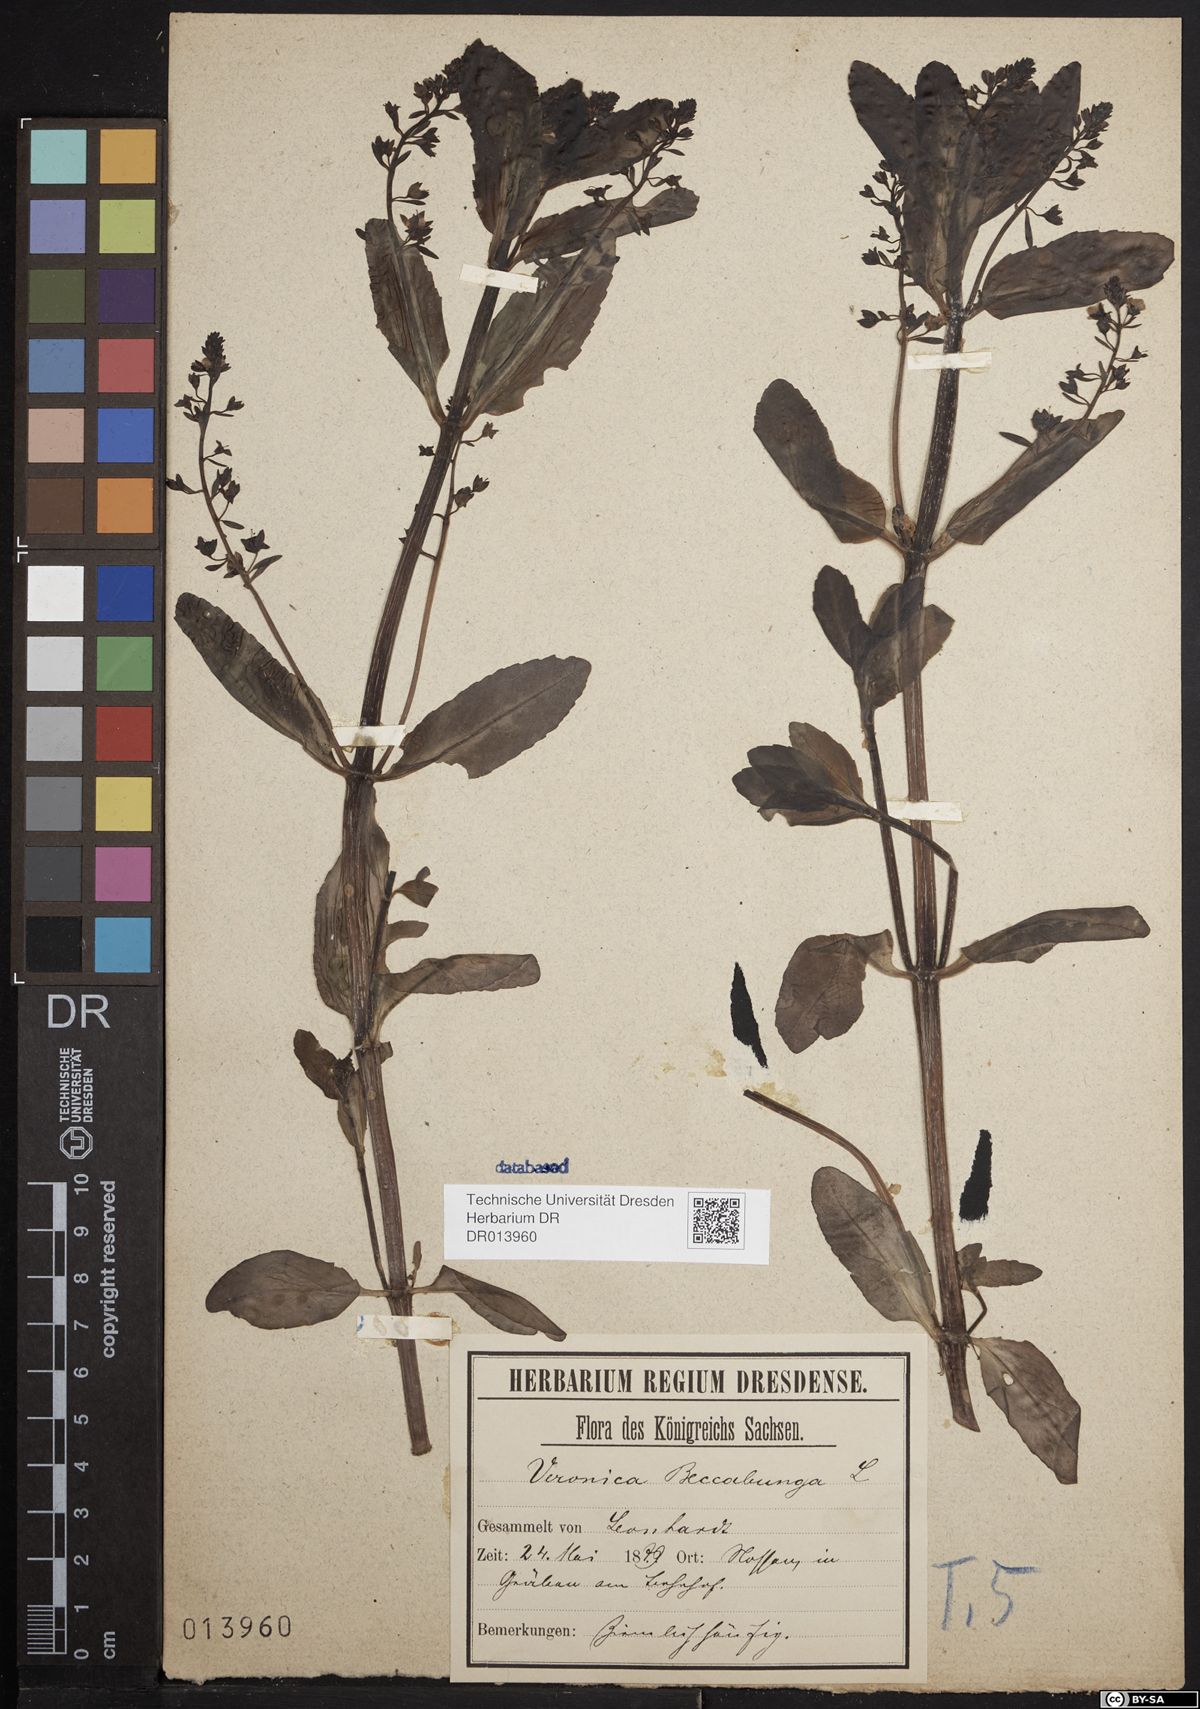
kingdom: Plantae
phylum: Tracheophyta
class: Magnoliopsida
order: Lamiales
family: Plantaginaceae
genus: Veronica
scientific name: Veronica beccabunga
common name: Brooklime
